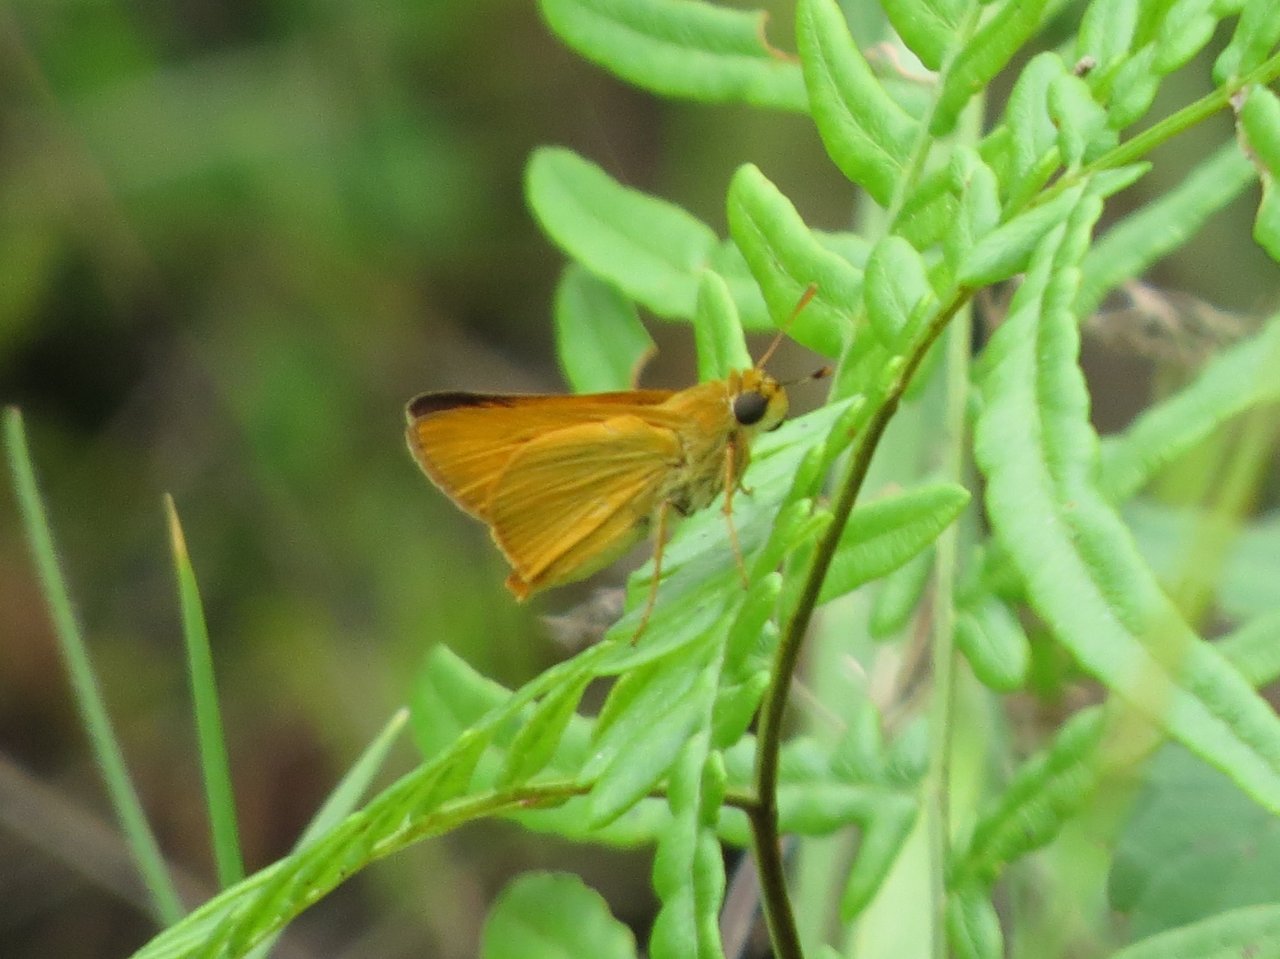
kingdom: Animalia
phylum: Arthropoda
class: Insecta
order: Lepidoptera
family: Hesperiidae
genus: Atrytone
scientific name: Atrytone delaware
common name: Delaware Skipper
